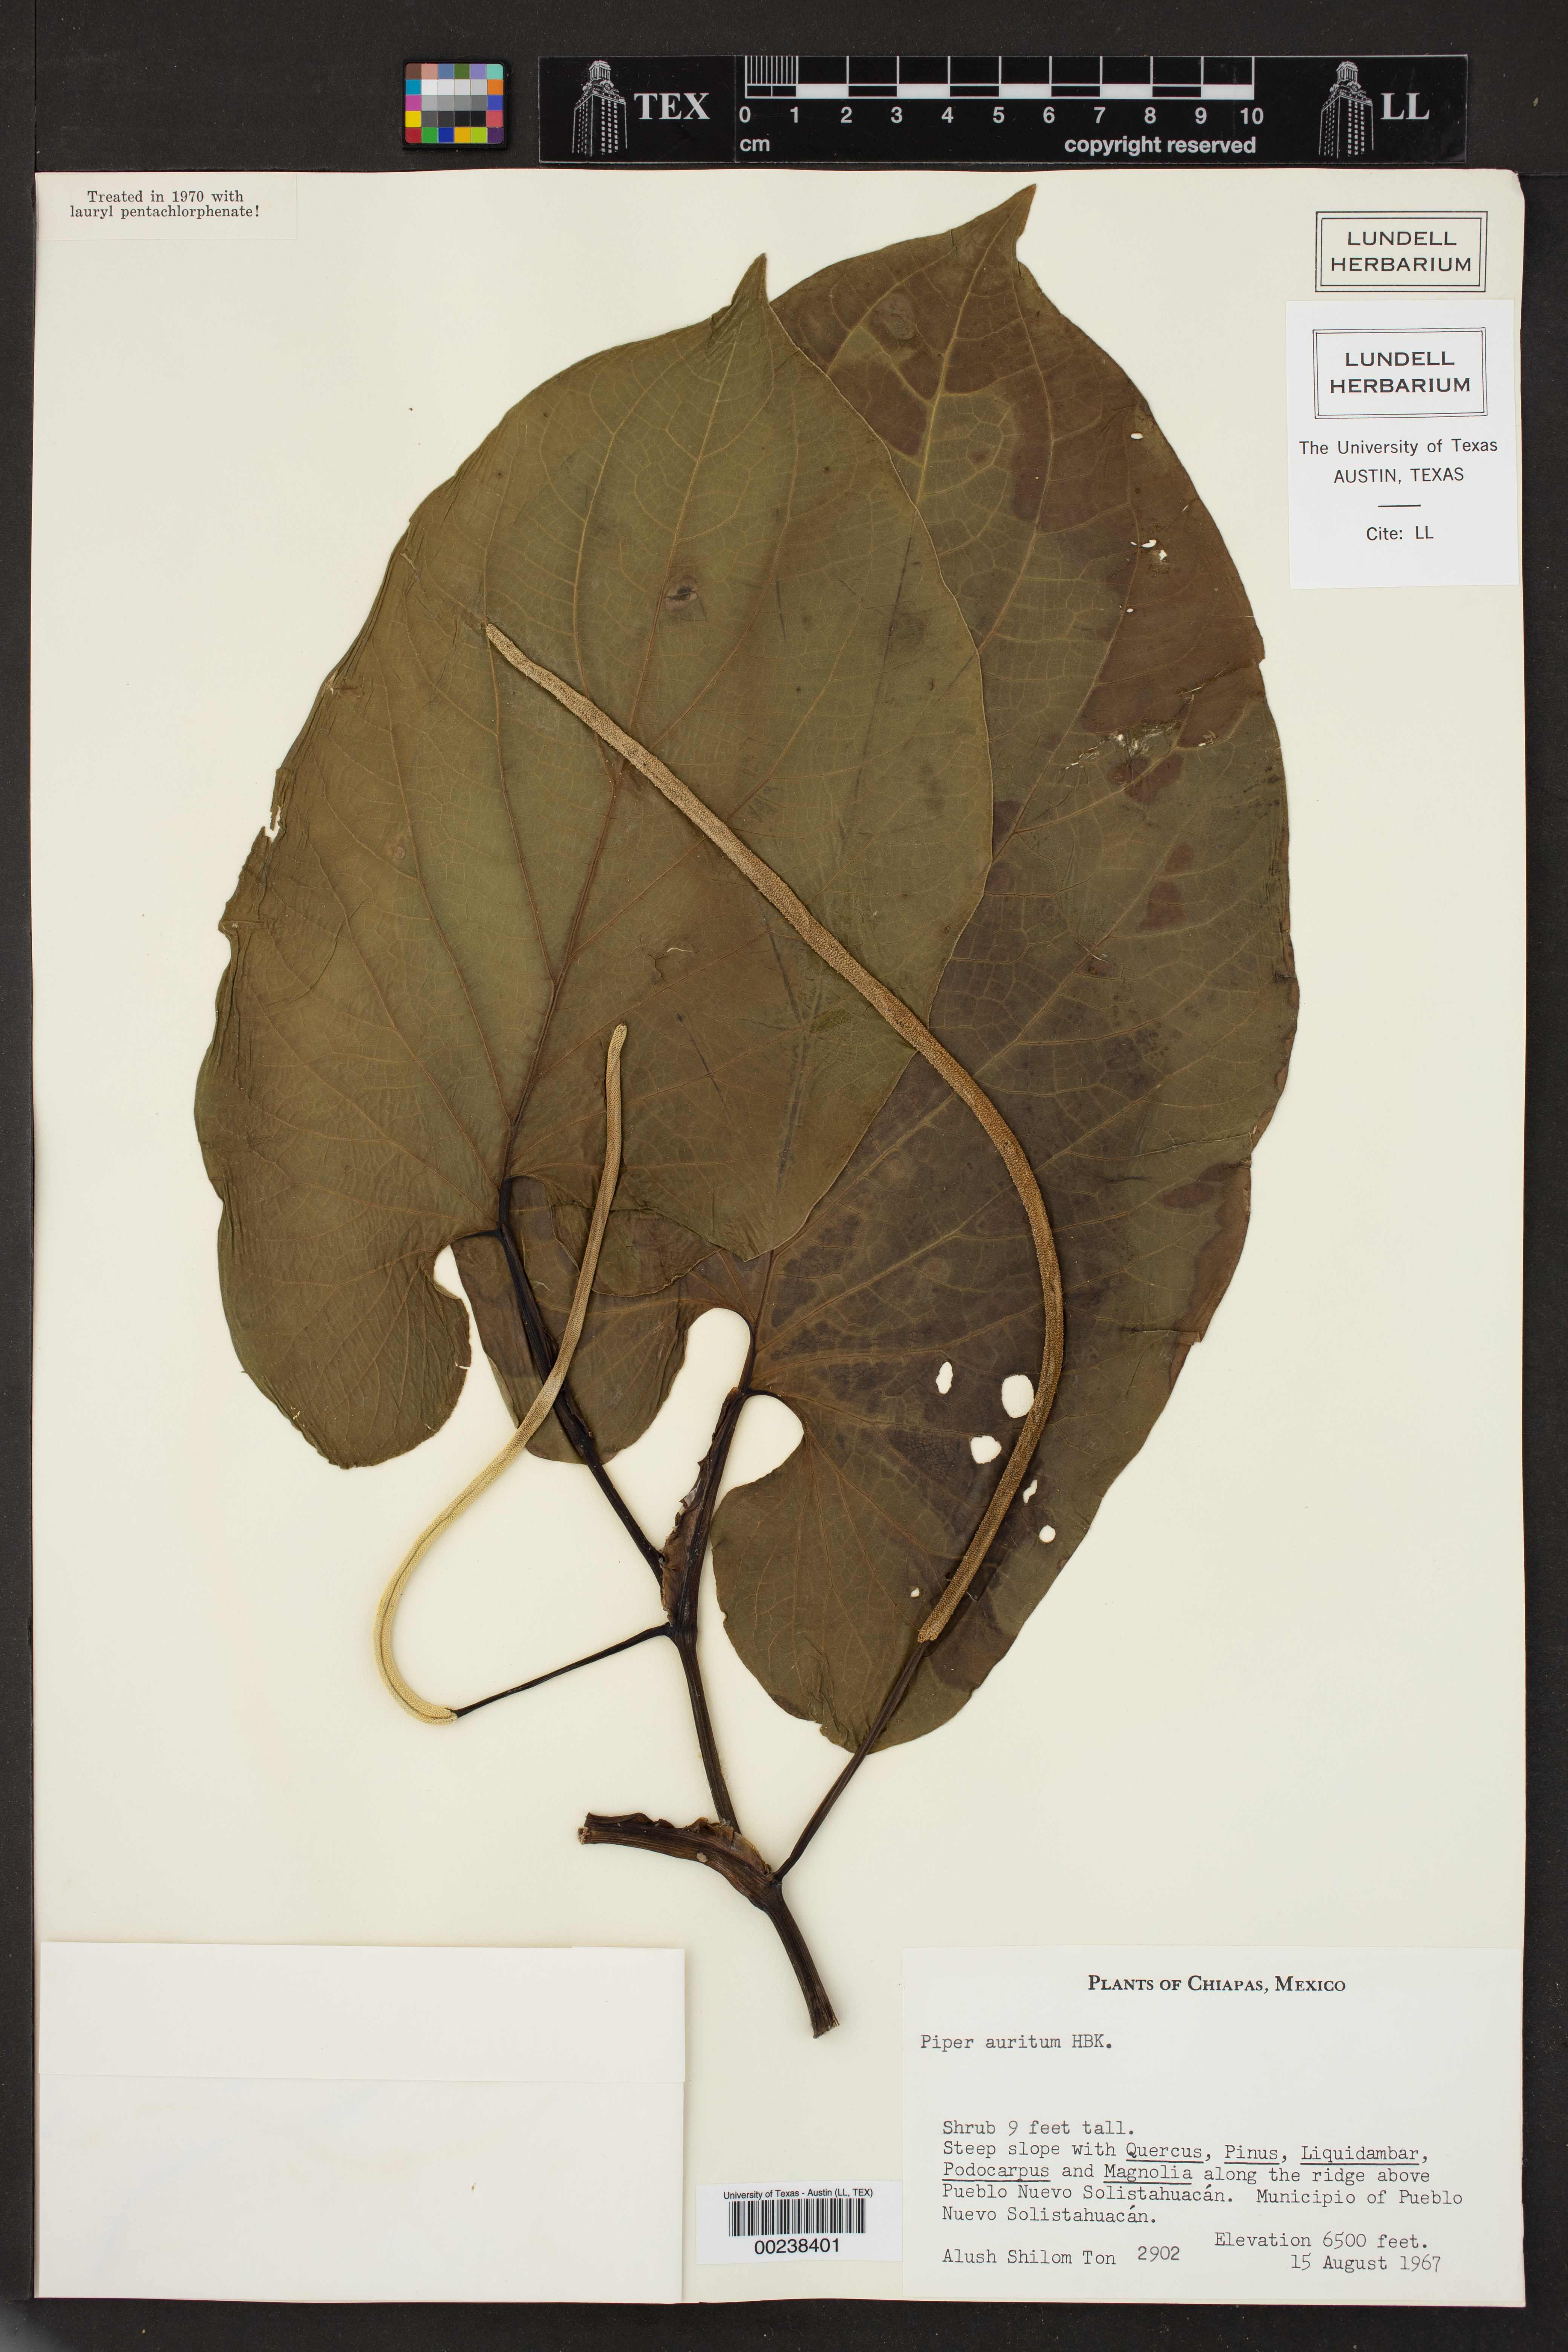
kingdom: Plantae
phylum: Tracheophyta
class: Magnoliopsida
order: Piperales
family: Piperaceae
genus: Piper
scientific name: Piper auritum
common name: Vera cruz pepper
